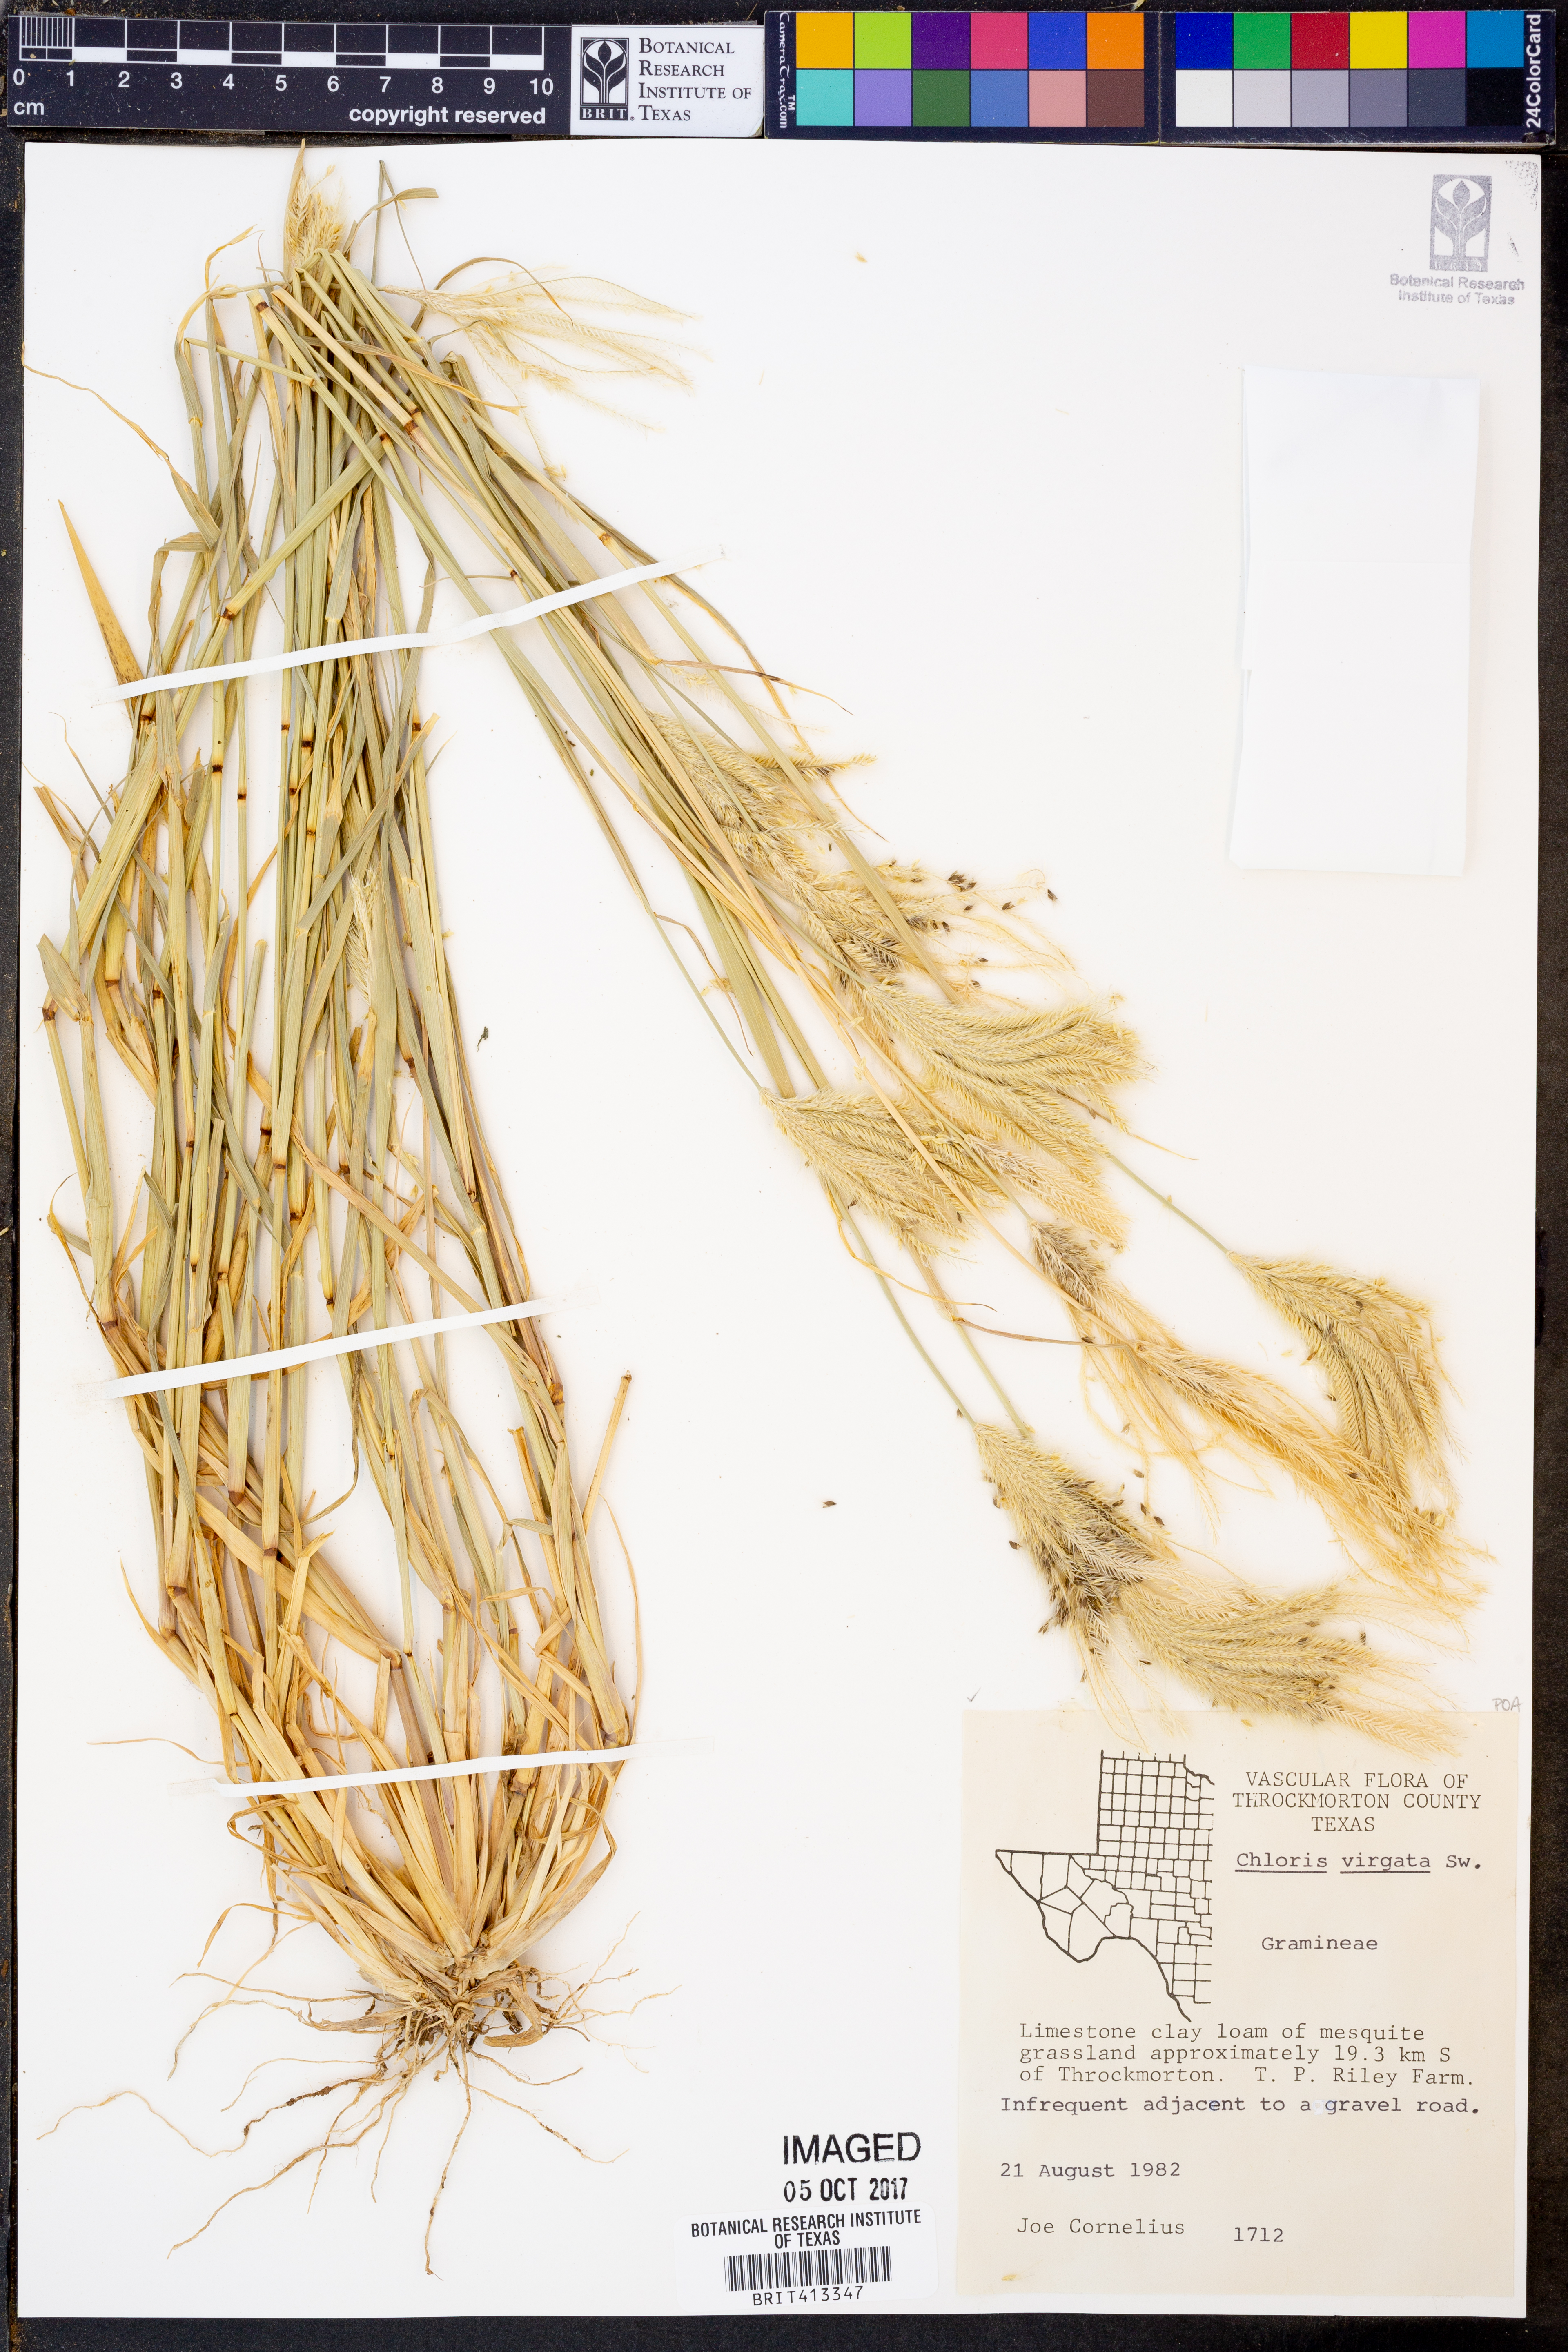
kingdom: Plantae
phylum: Tracheophyta
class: Liliopsida
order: Poales
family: Poaceae
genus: Chloris
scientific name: Chloris virgata
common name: Feathery rhodes-grass
